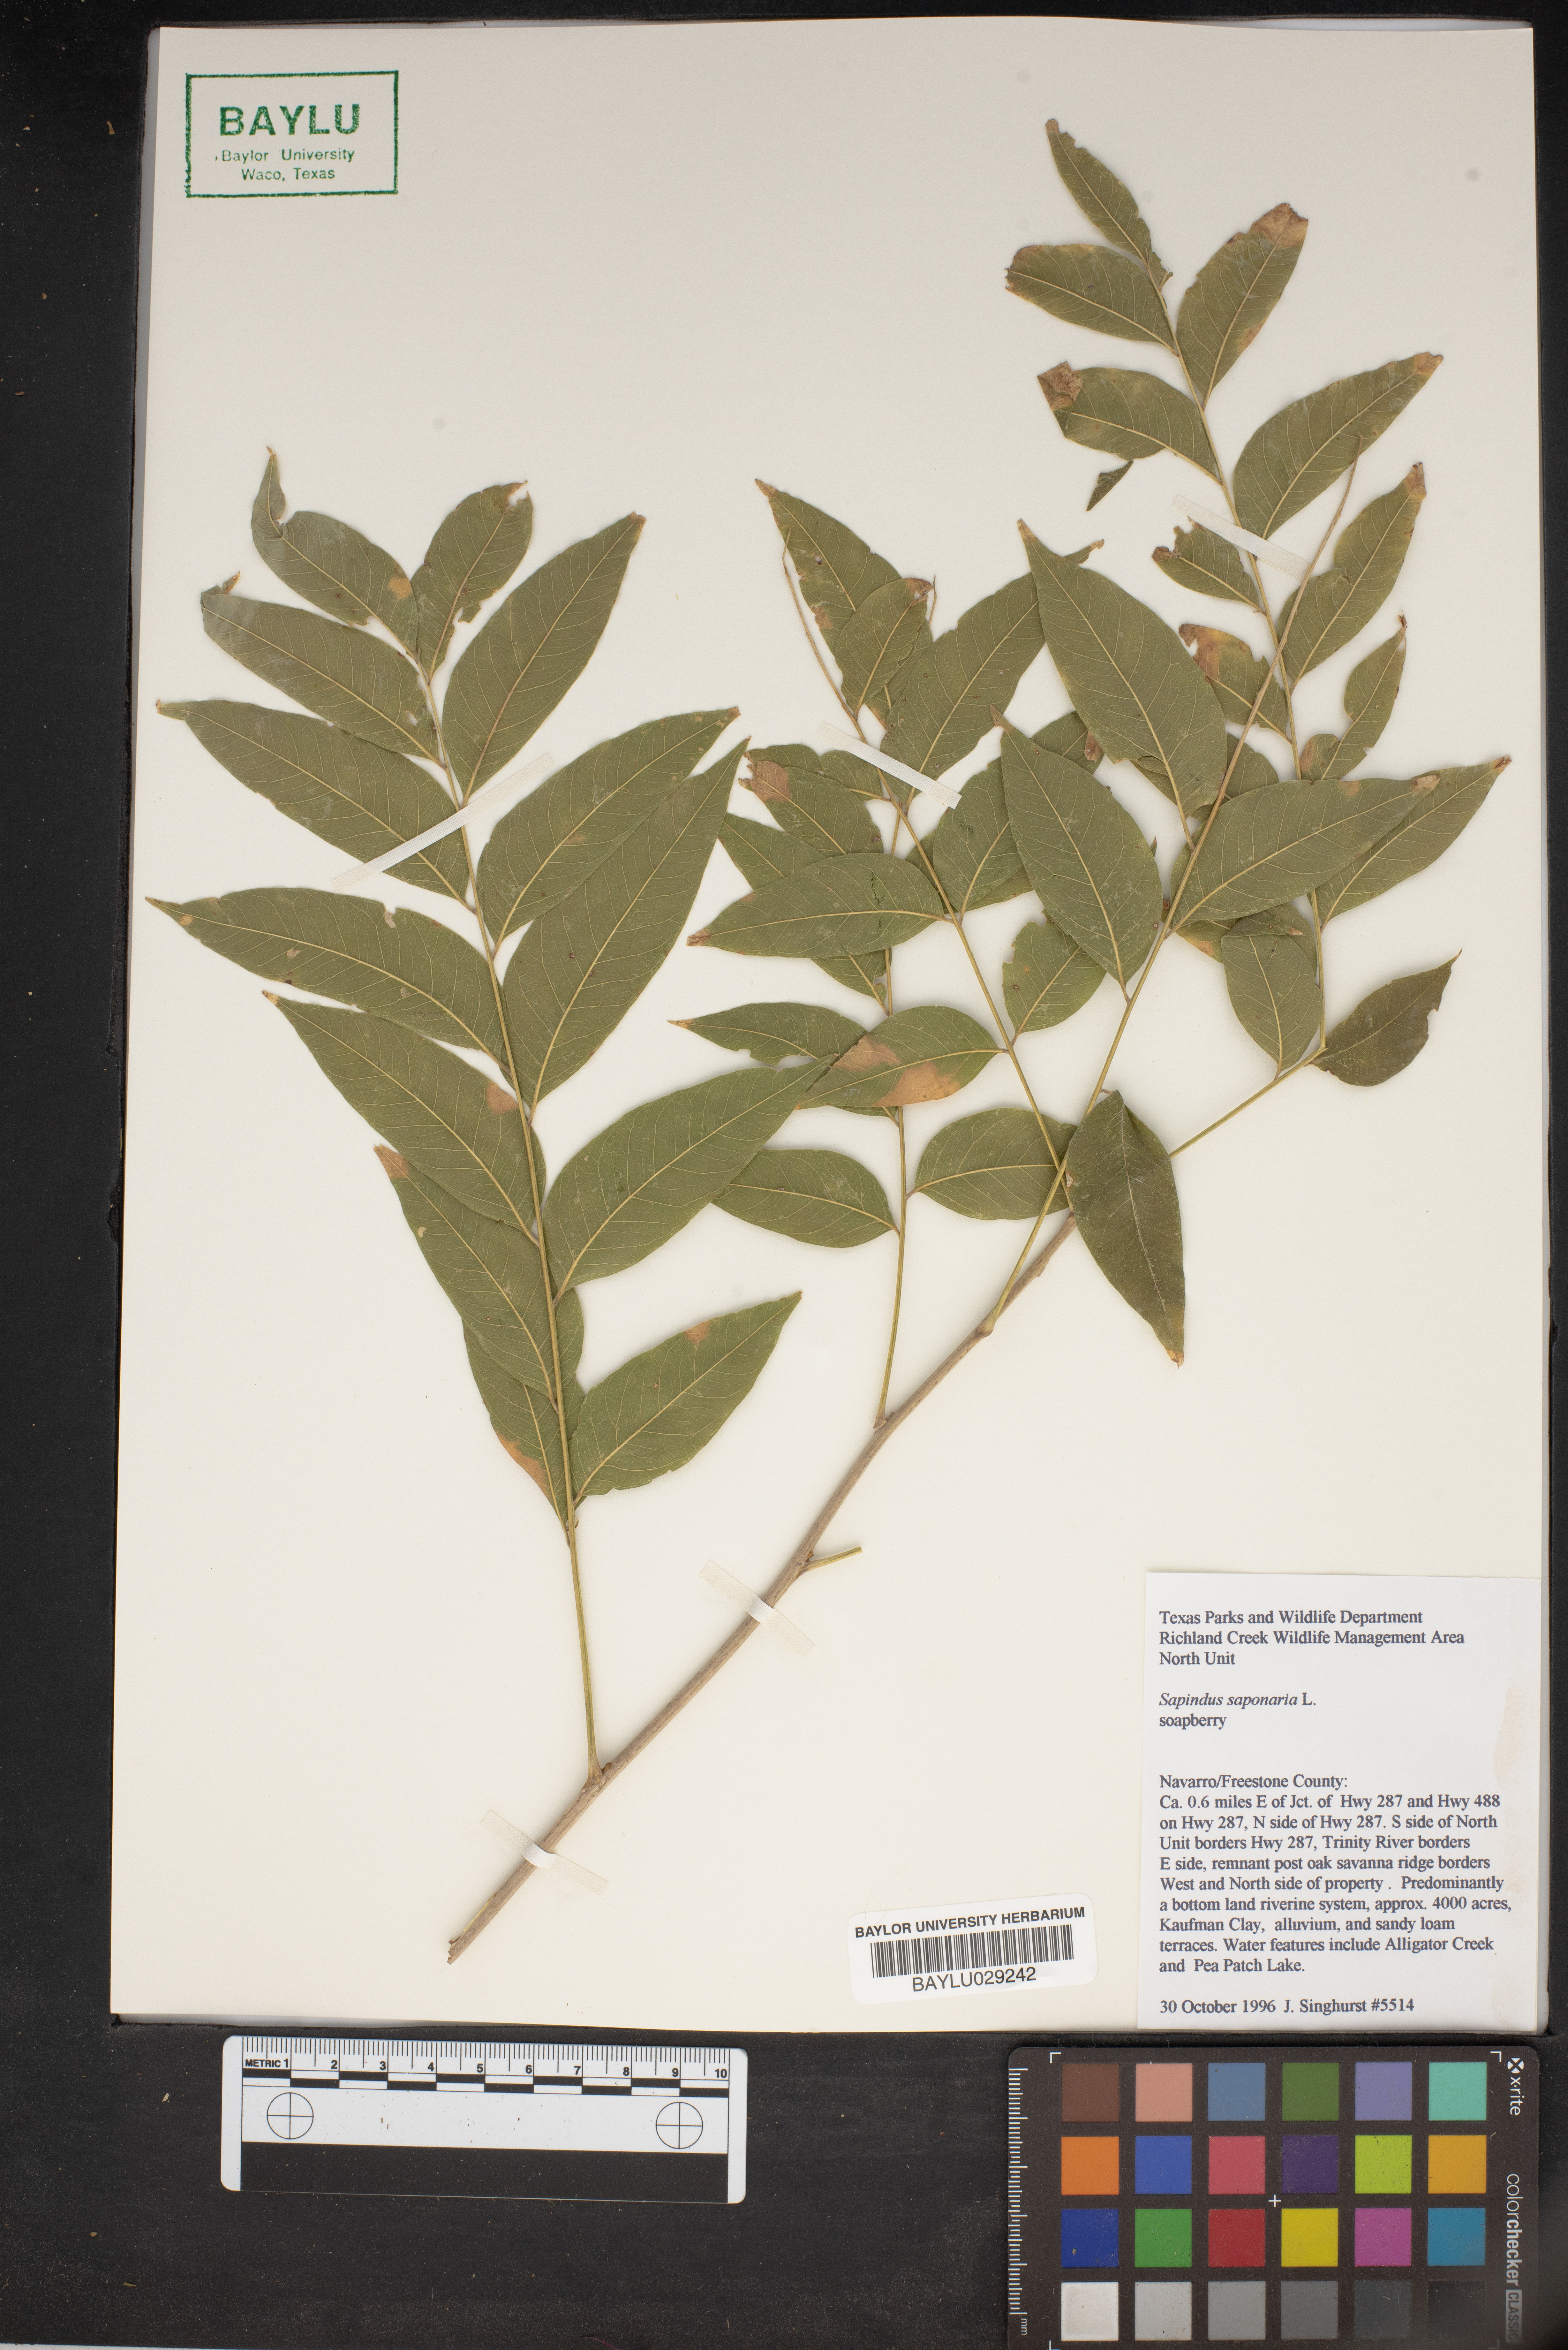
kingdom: Plantae
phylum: Tracheophyta
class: Magnoliopsida
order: Sapindales
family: Sapindaceae
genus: Sapindus
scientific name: Sapindus saponaria
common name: Wingleaf soapberry
